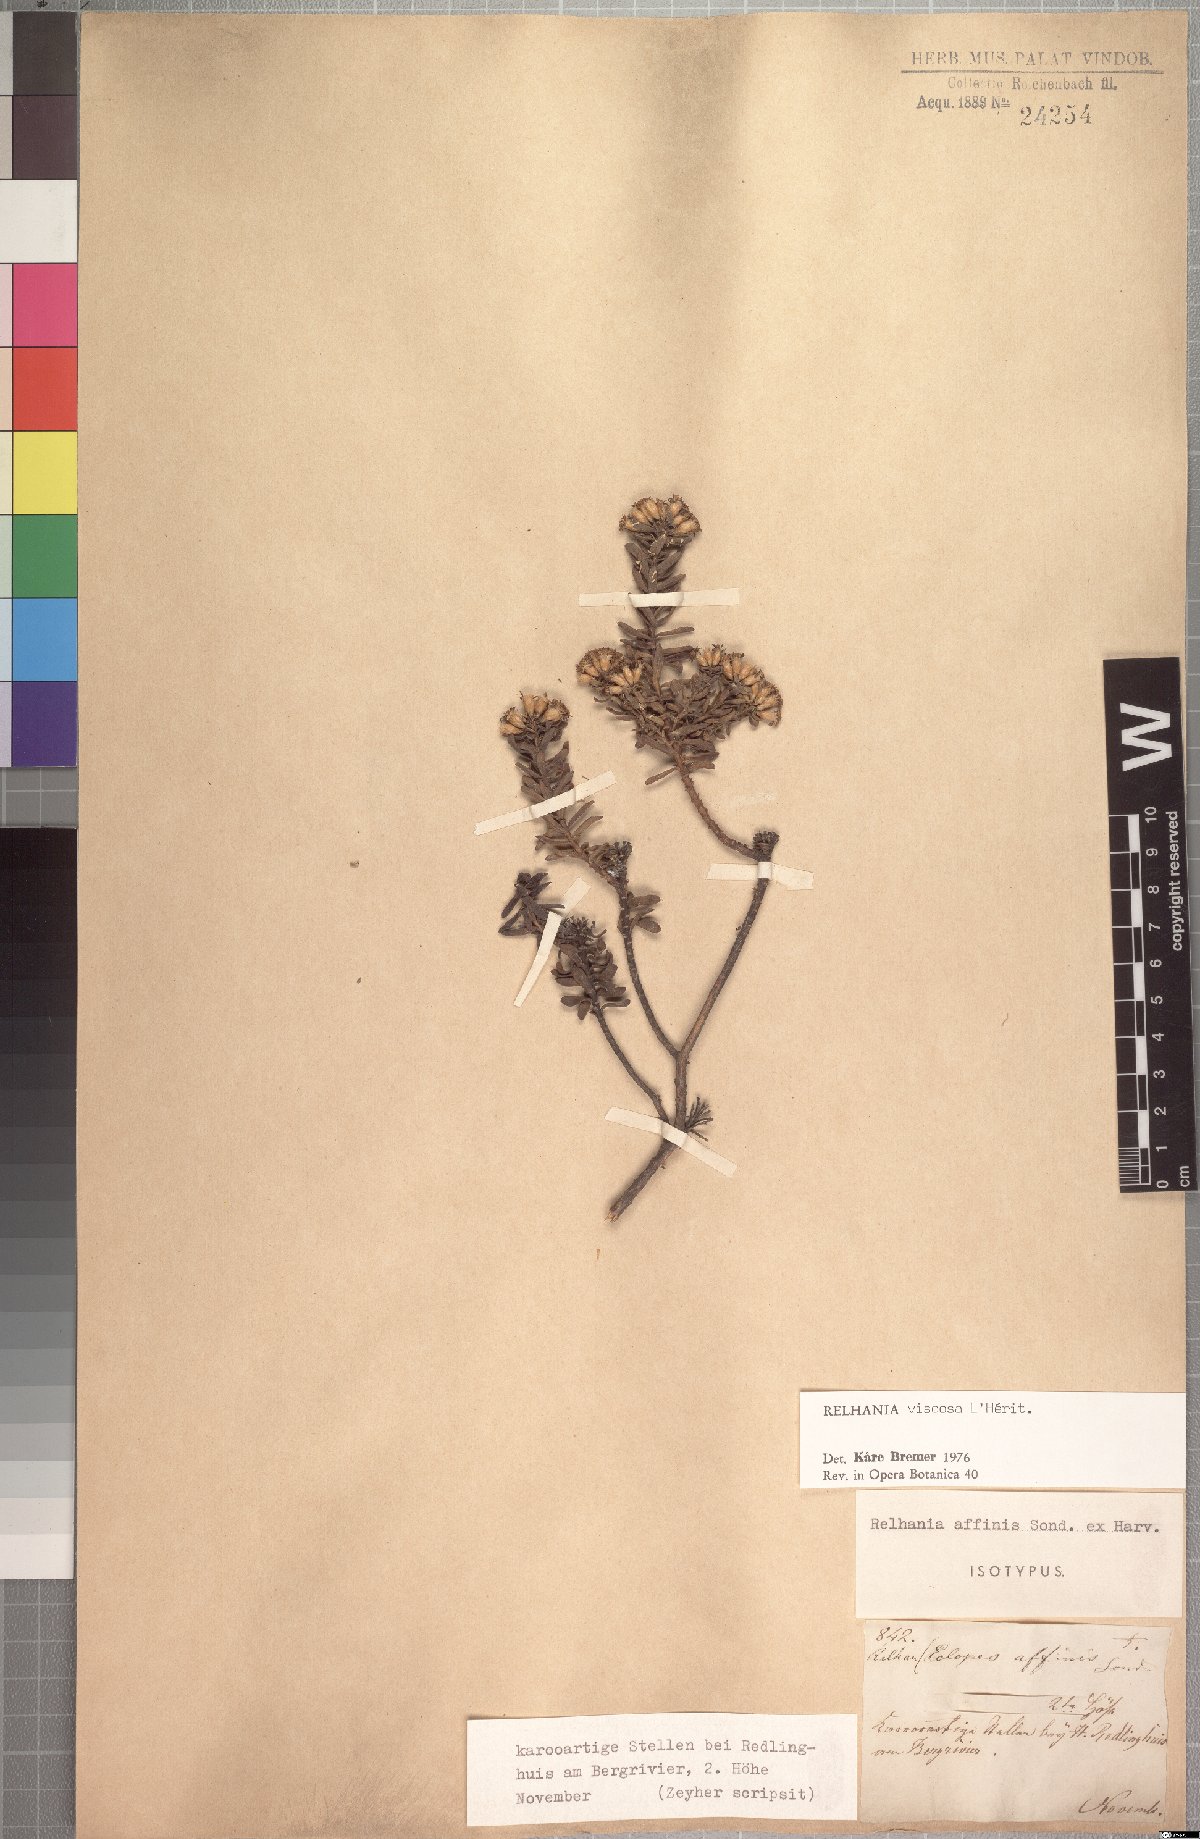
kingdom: Plantae
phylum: Tracheophyta
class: Magnoliopsida
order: Asterales
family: Asteraceae
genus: Oedera
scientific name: Oedera viscosa
